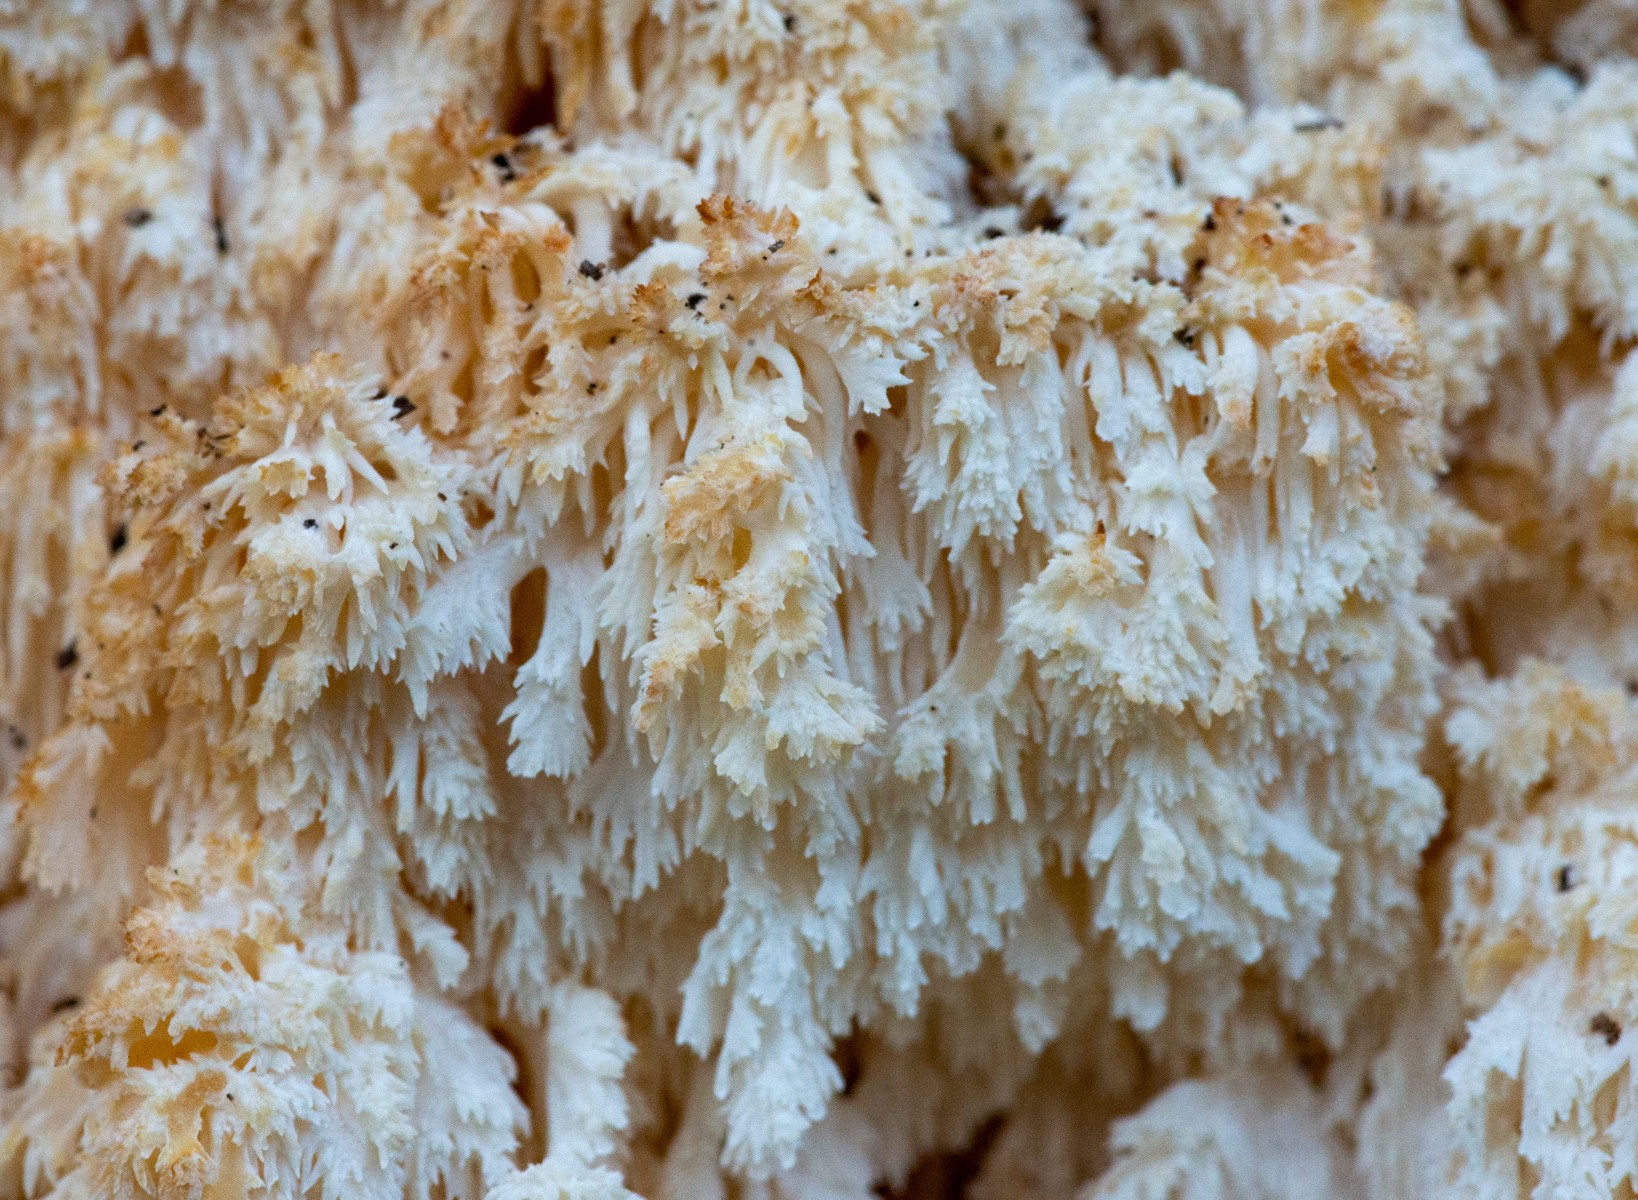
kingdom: Fungi
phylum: Basidiomycota
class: Agaricomycetes
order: Russulales
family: Hericiaceae
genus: Hericium
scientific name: Hericium coralloides
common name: koralpigsvamp
